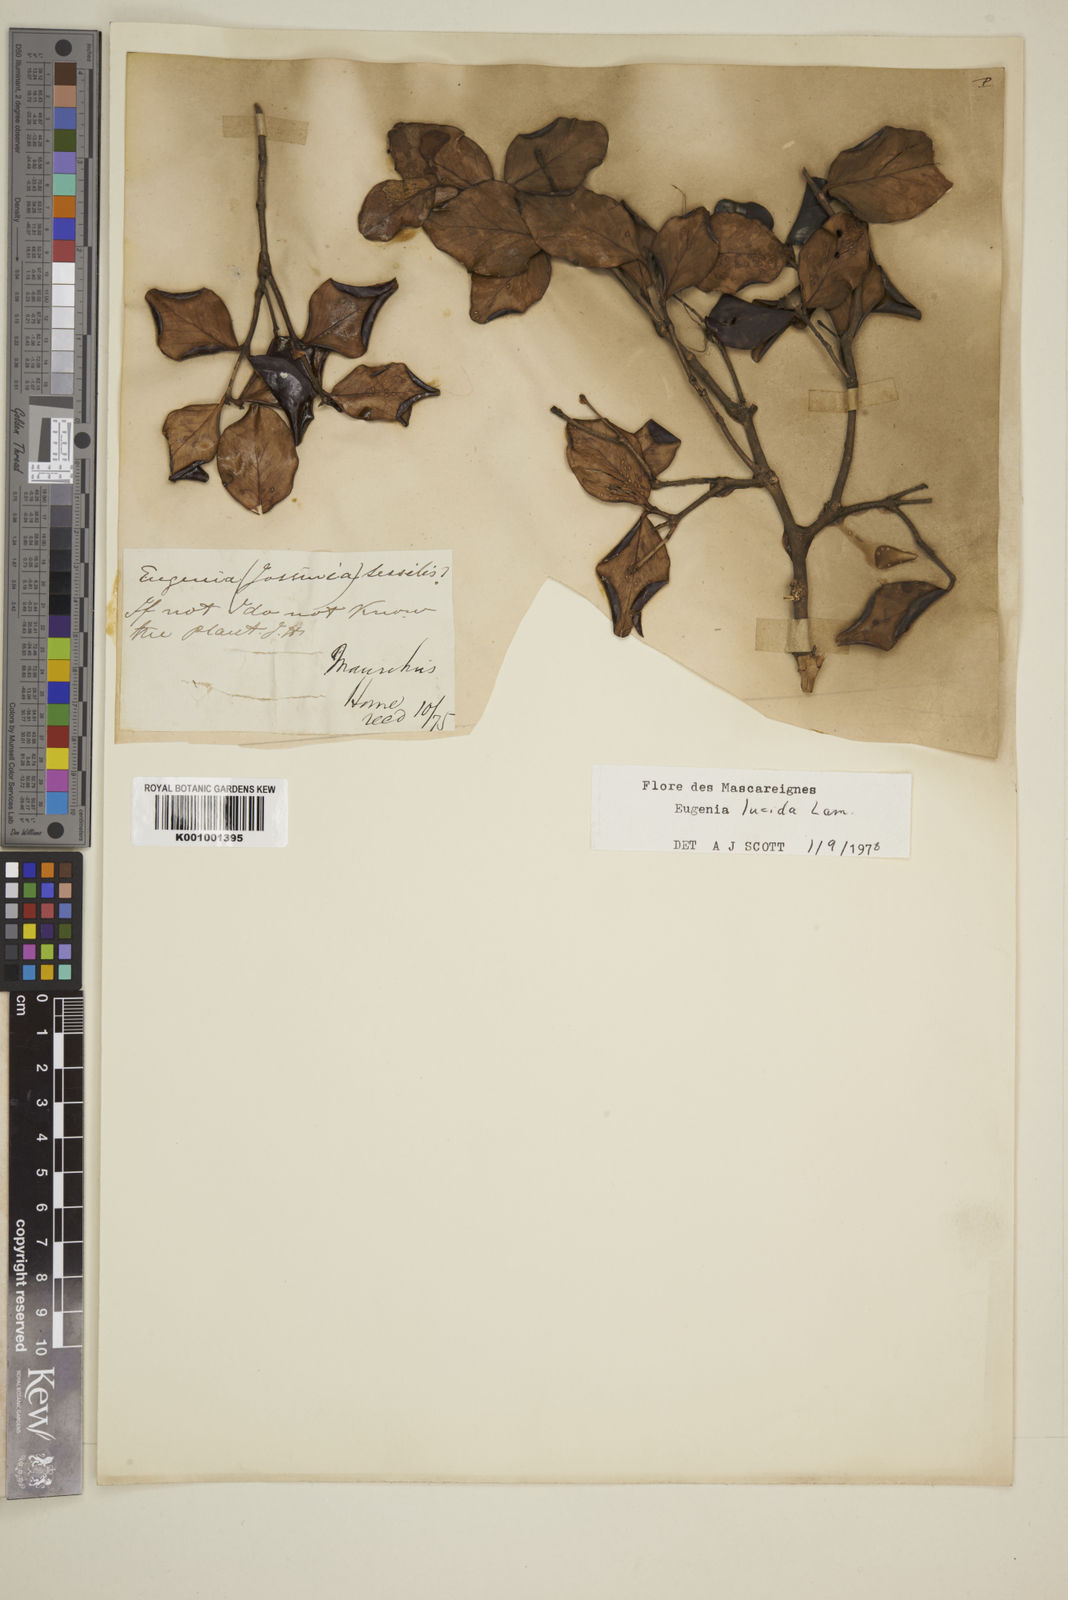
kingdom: Plantae
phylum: Tracheophyta
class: Magnoliopsida
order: Myrtales
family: Myrtaceae
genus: Eugenia
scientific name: Eugenia lucida
